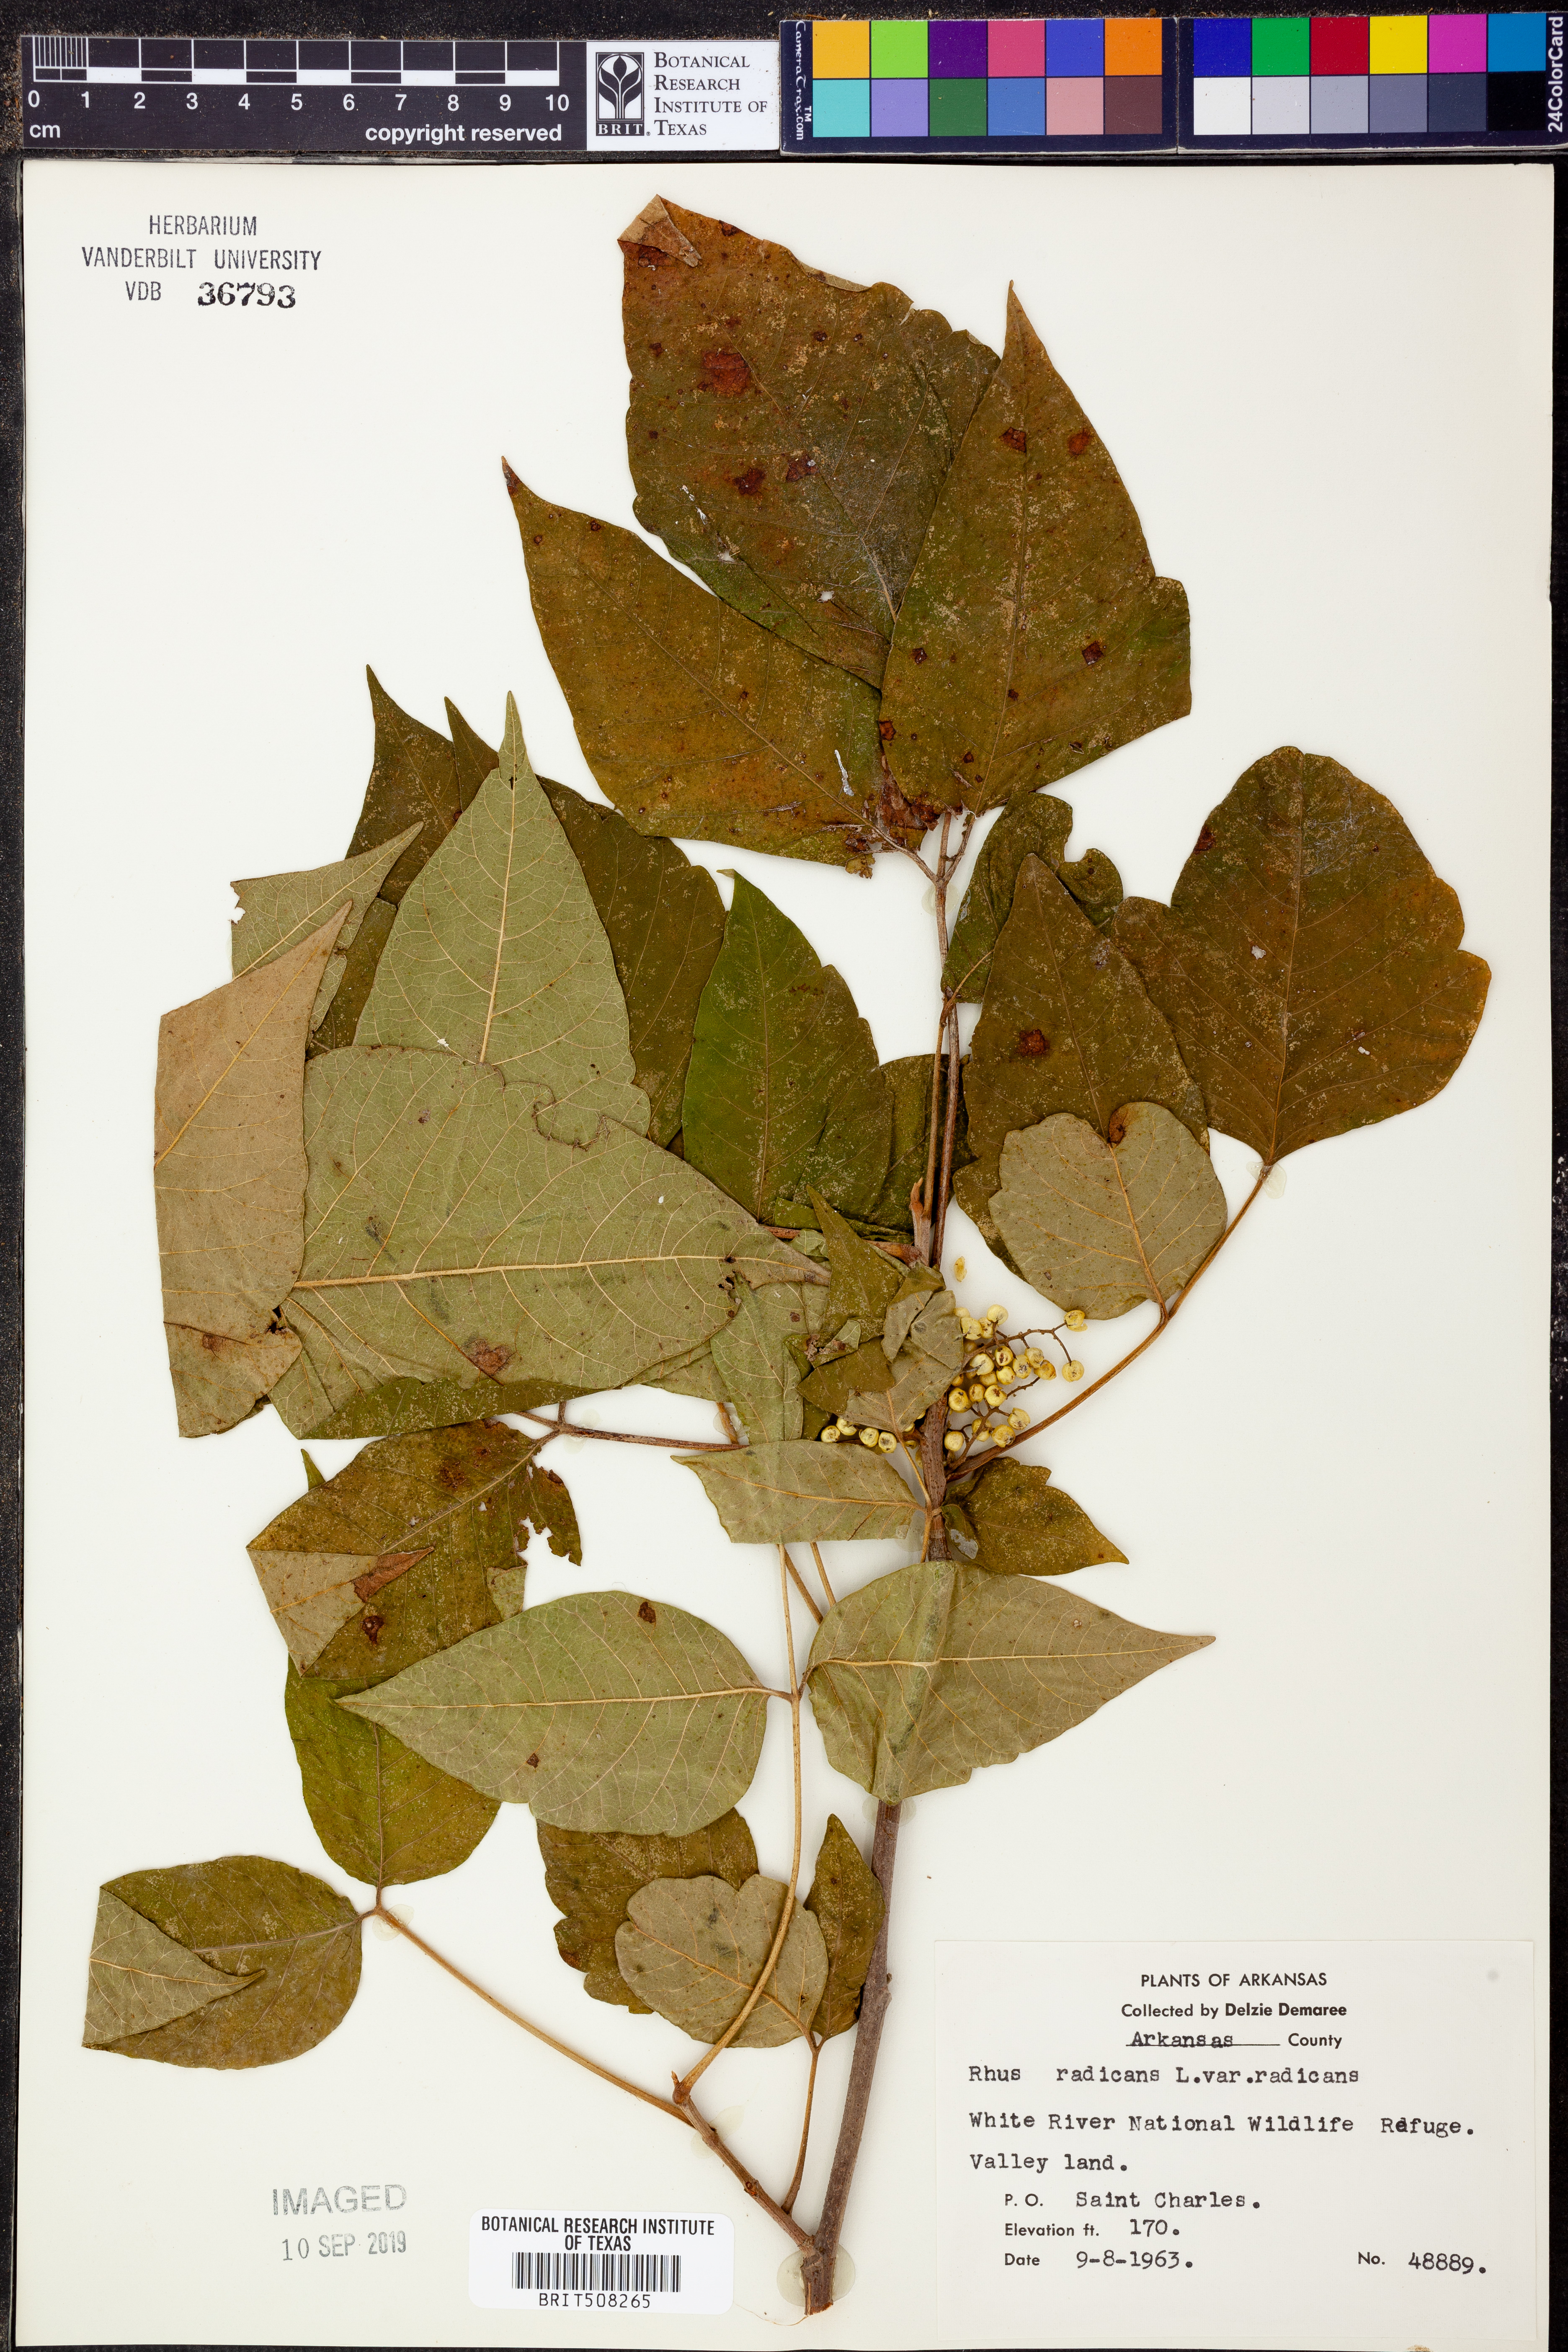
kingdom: Plantae
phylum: Tracheophyta
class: Magnoliopsida
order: Sapindales
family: Anacardiaceae
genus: Toxicodendron
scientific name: Toxicodendron radicans
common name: Poison ivy
